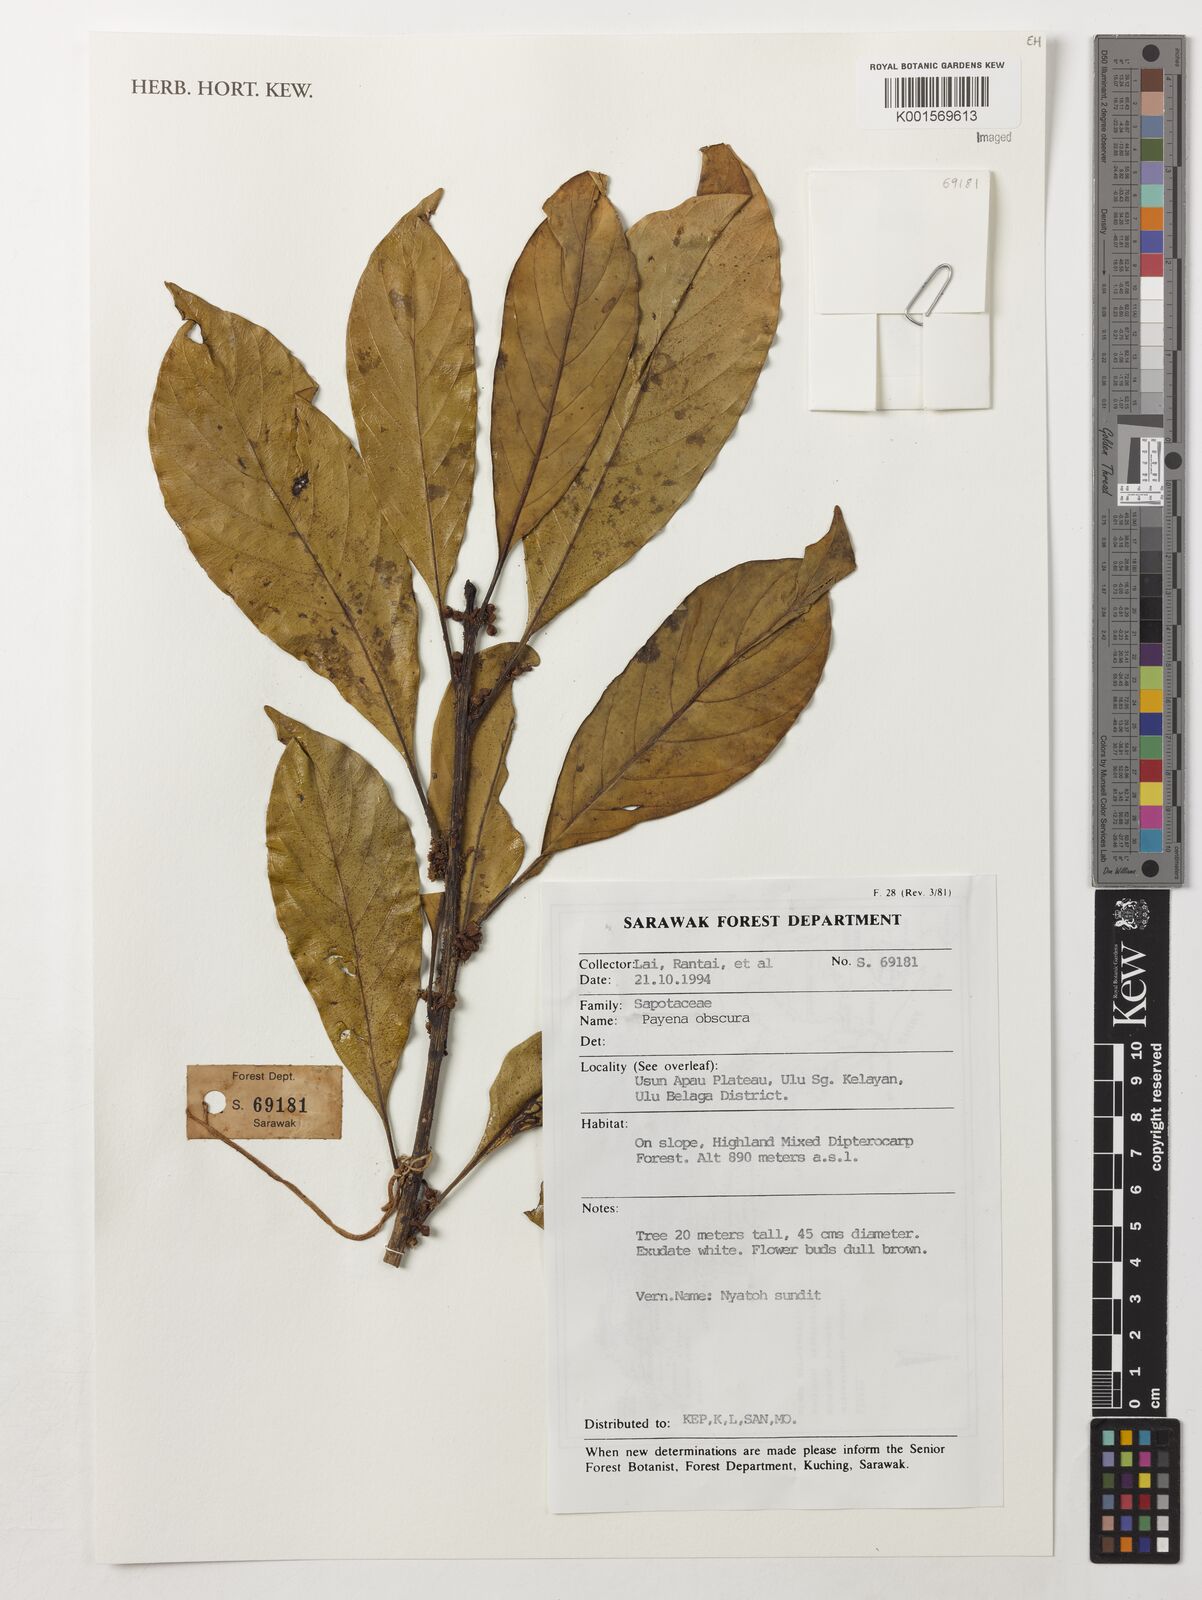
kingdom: Plantae
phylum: Tracheophyta
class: Magnoliopsida
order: Ericales
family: Sapotaceae
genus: Payena
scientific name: Payena obscura
